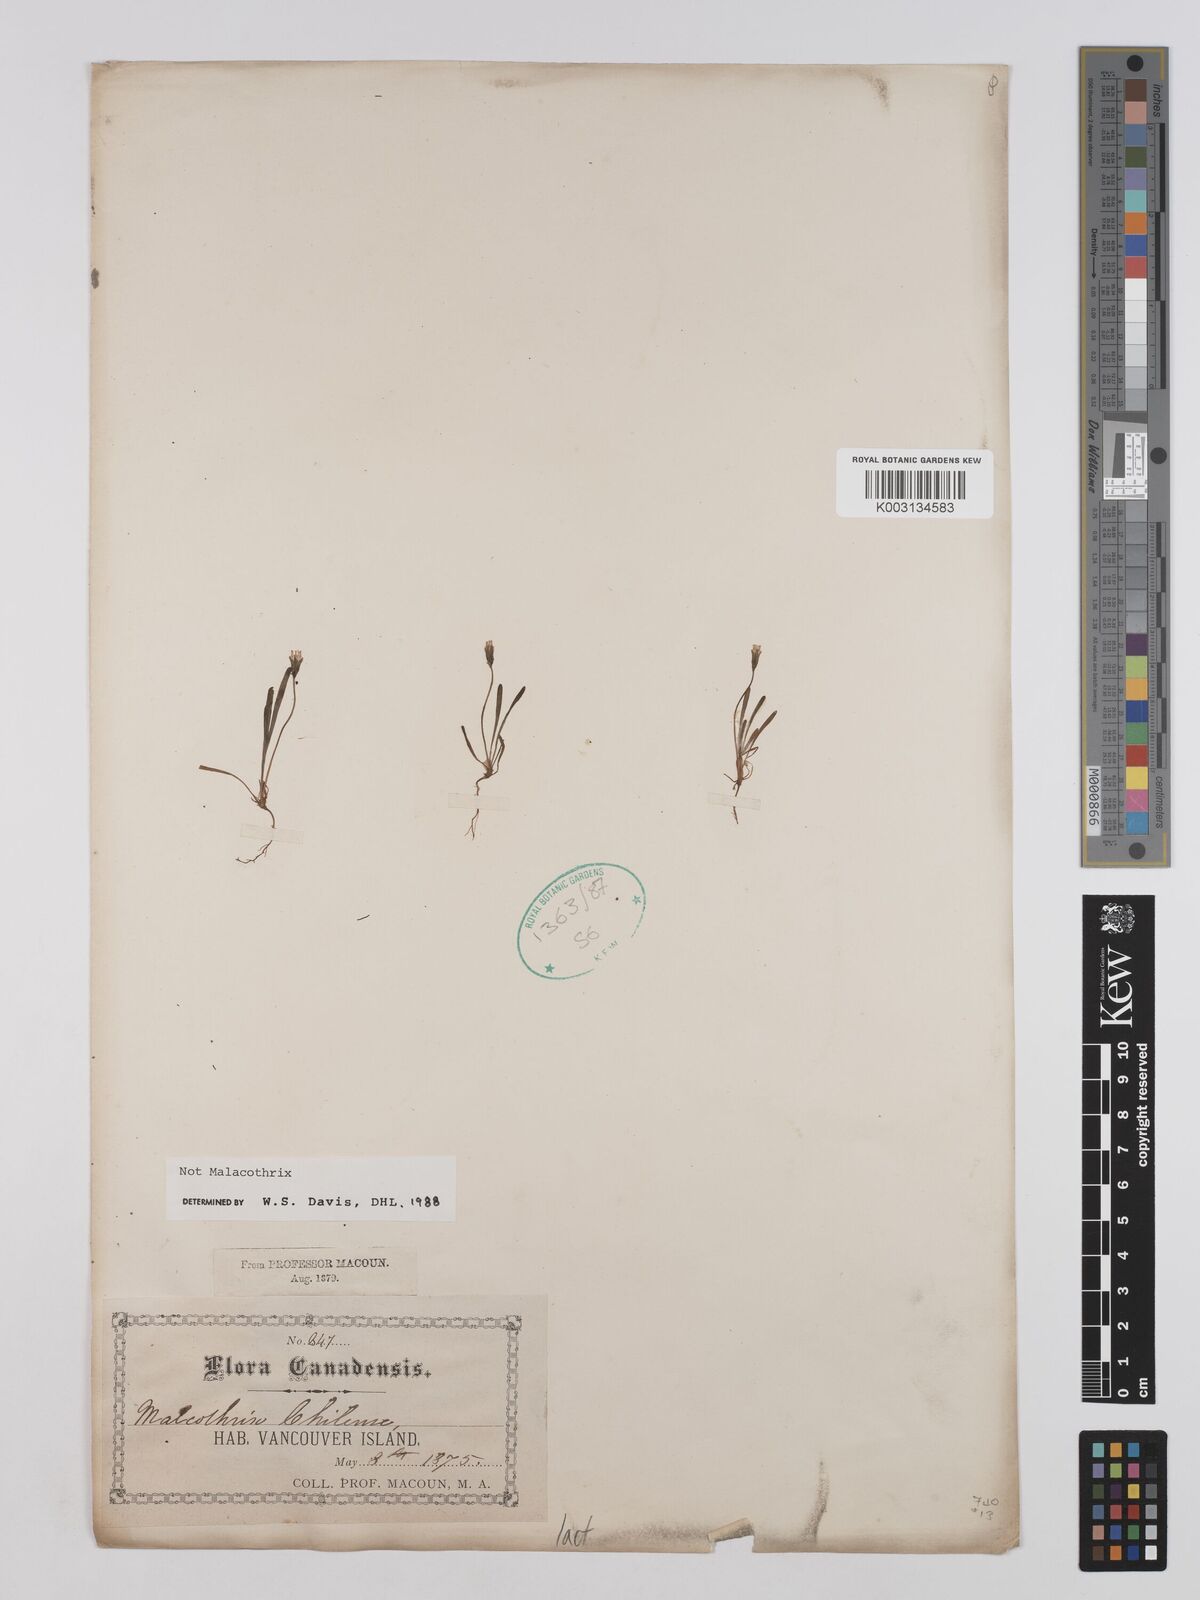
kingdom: Plantae
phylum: Tracheophyta
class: Magnoliopsida
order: Asterales
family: Asteraceae
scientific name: Asteraceae
